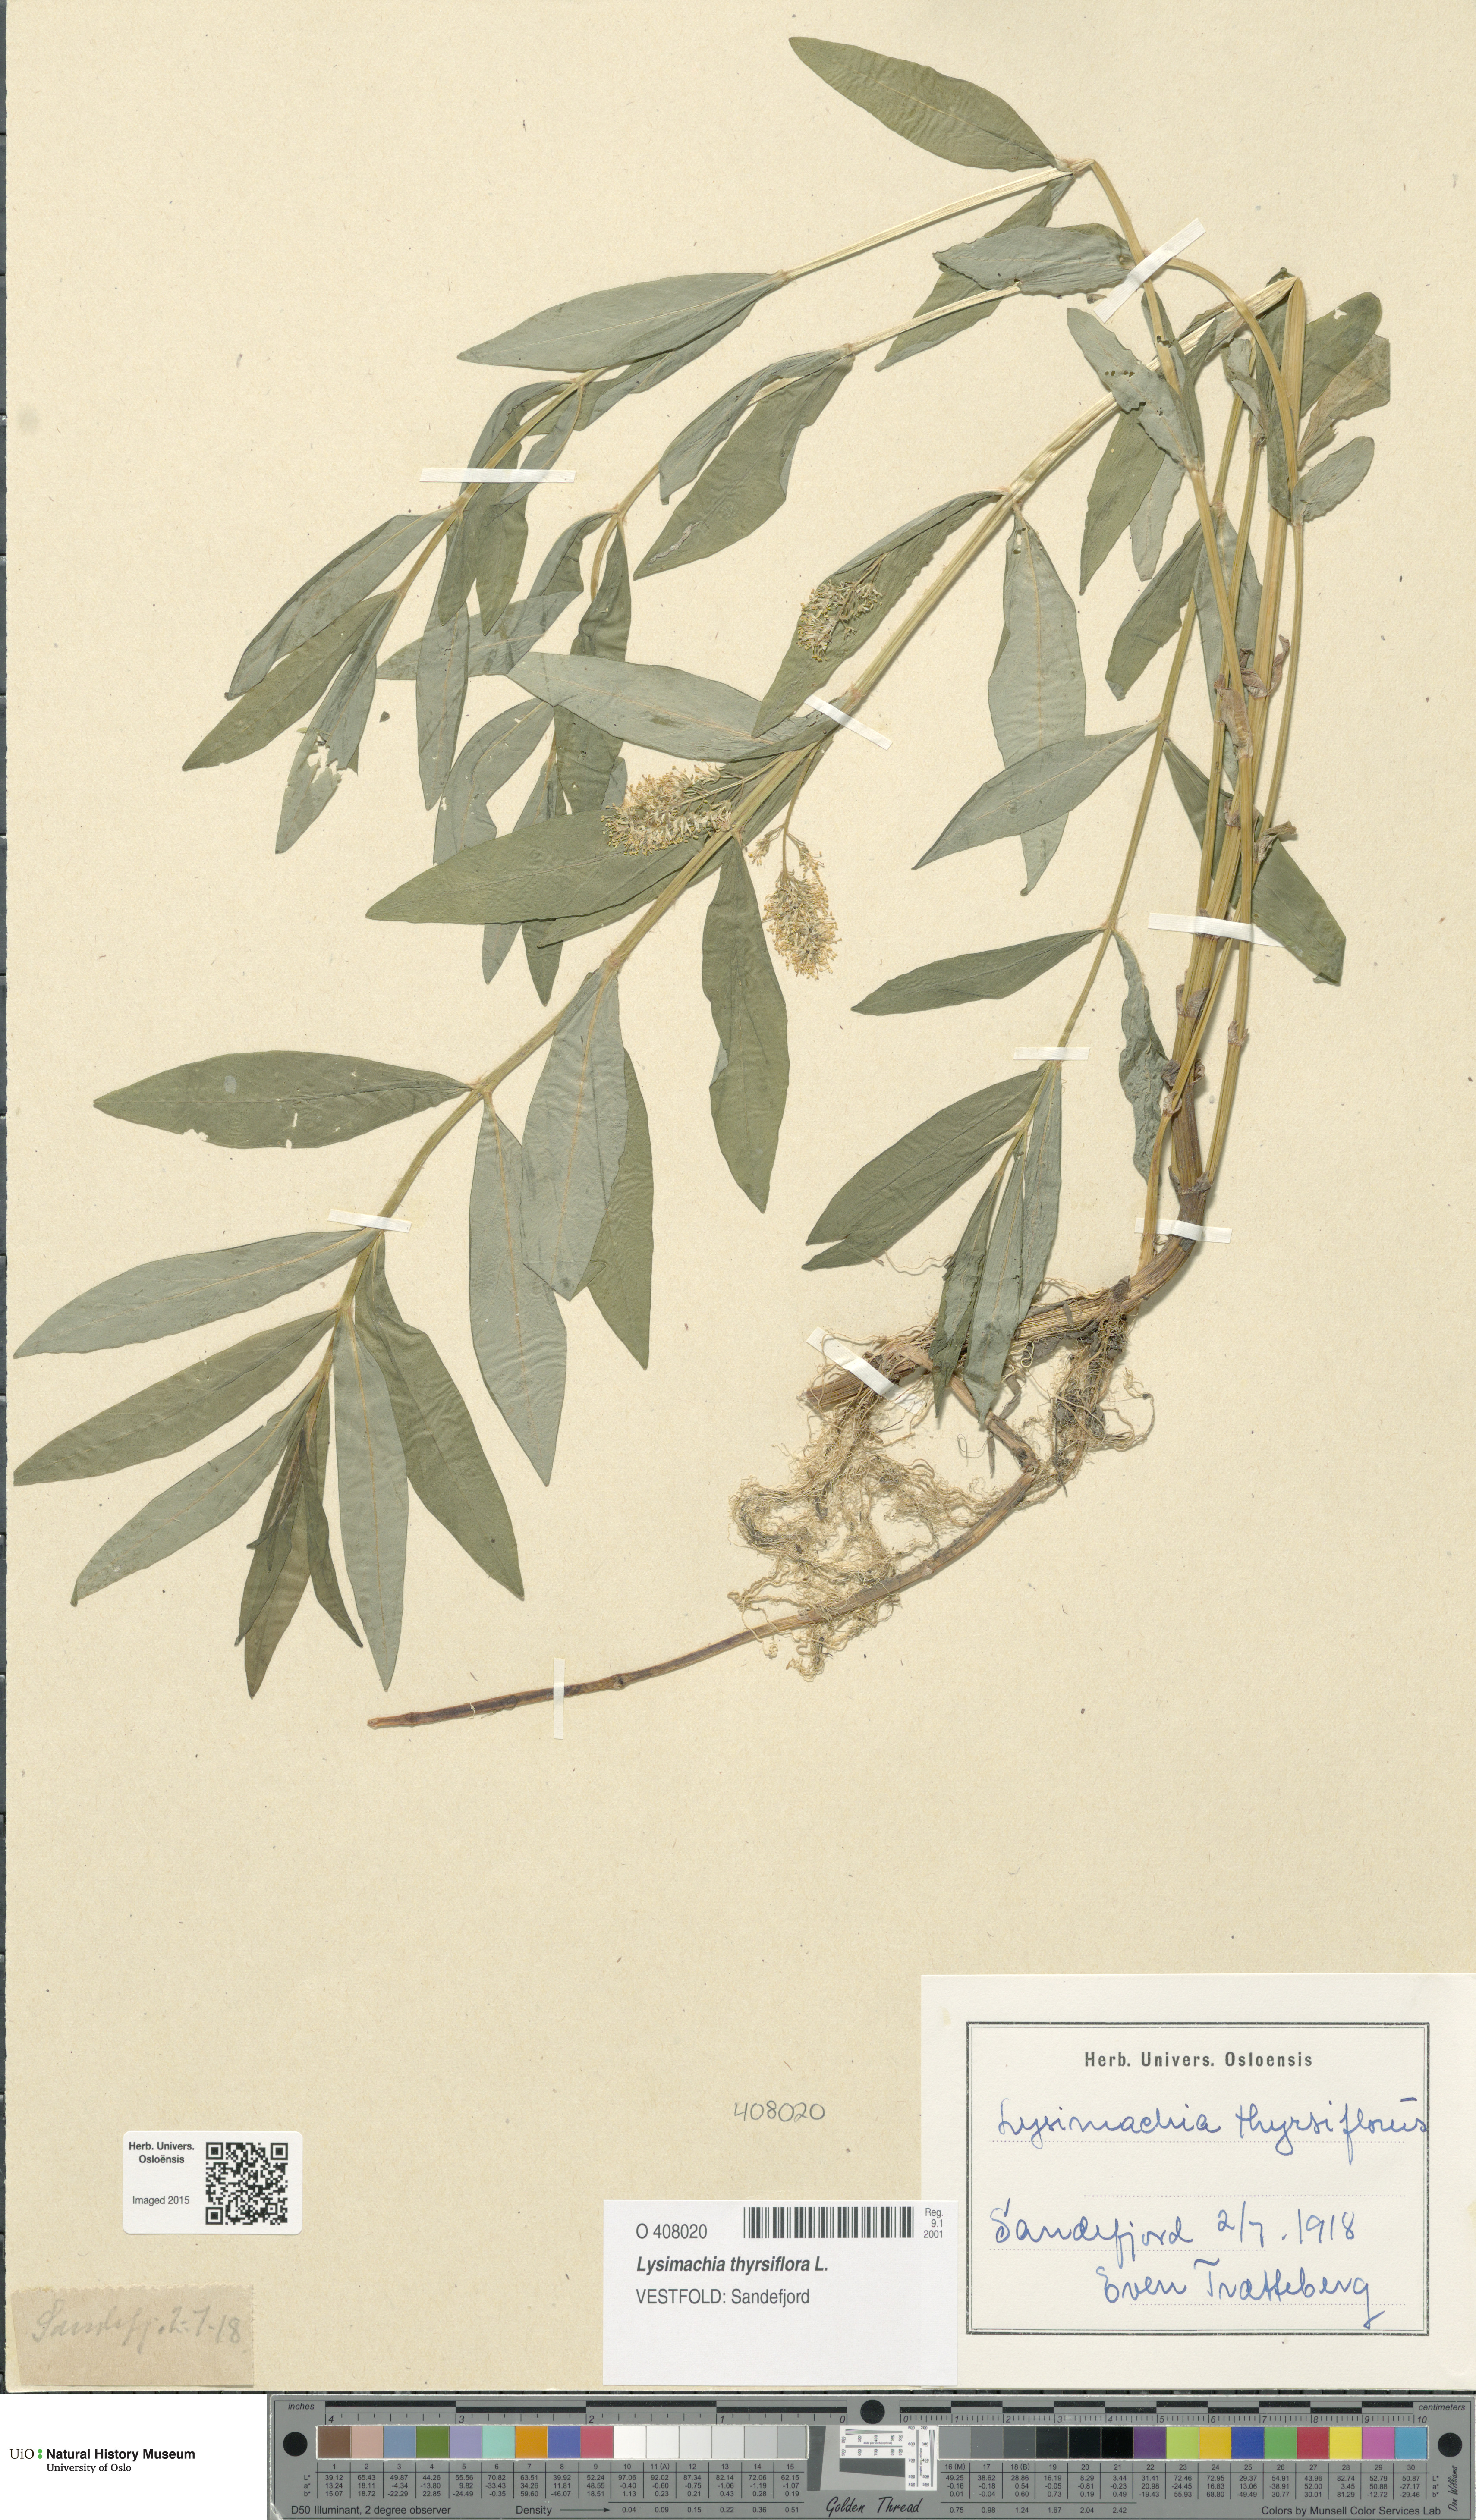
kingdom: Plantae
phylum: Tracheophyta
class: Magnoliopsida
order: Ericales
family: Primulaceae
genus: Lysimachia
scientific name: Lysimachia thyrsiflora
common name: Tufted loosestrife
